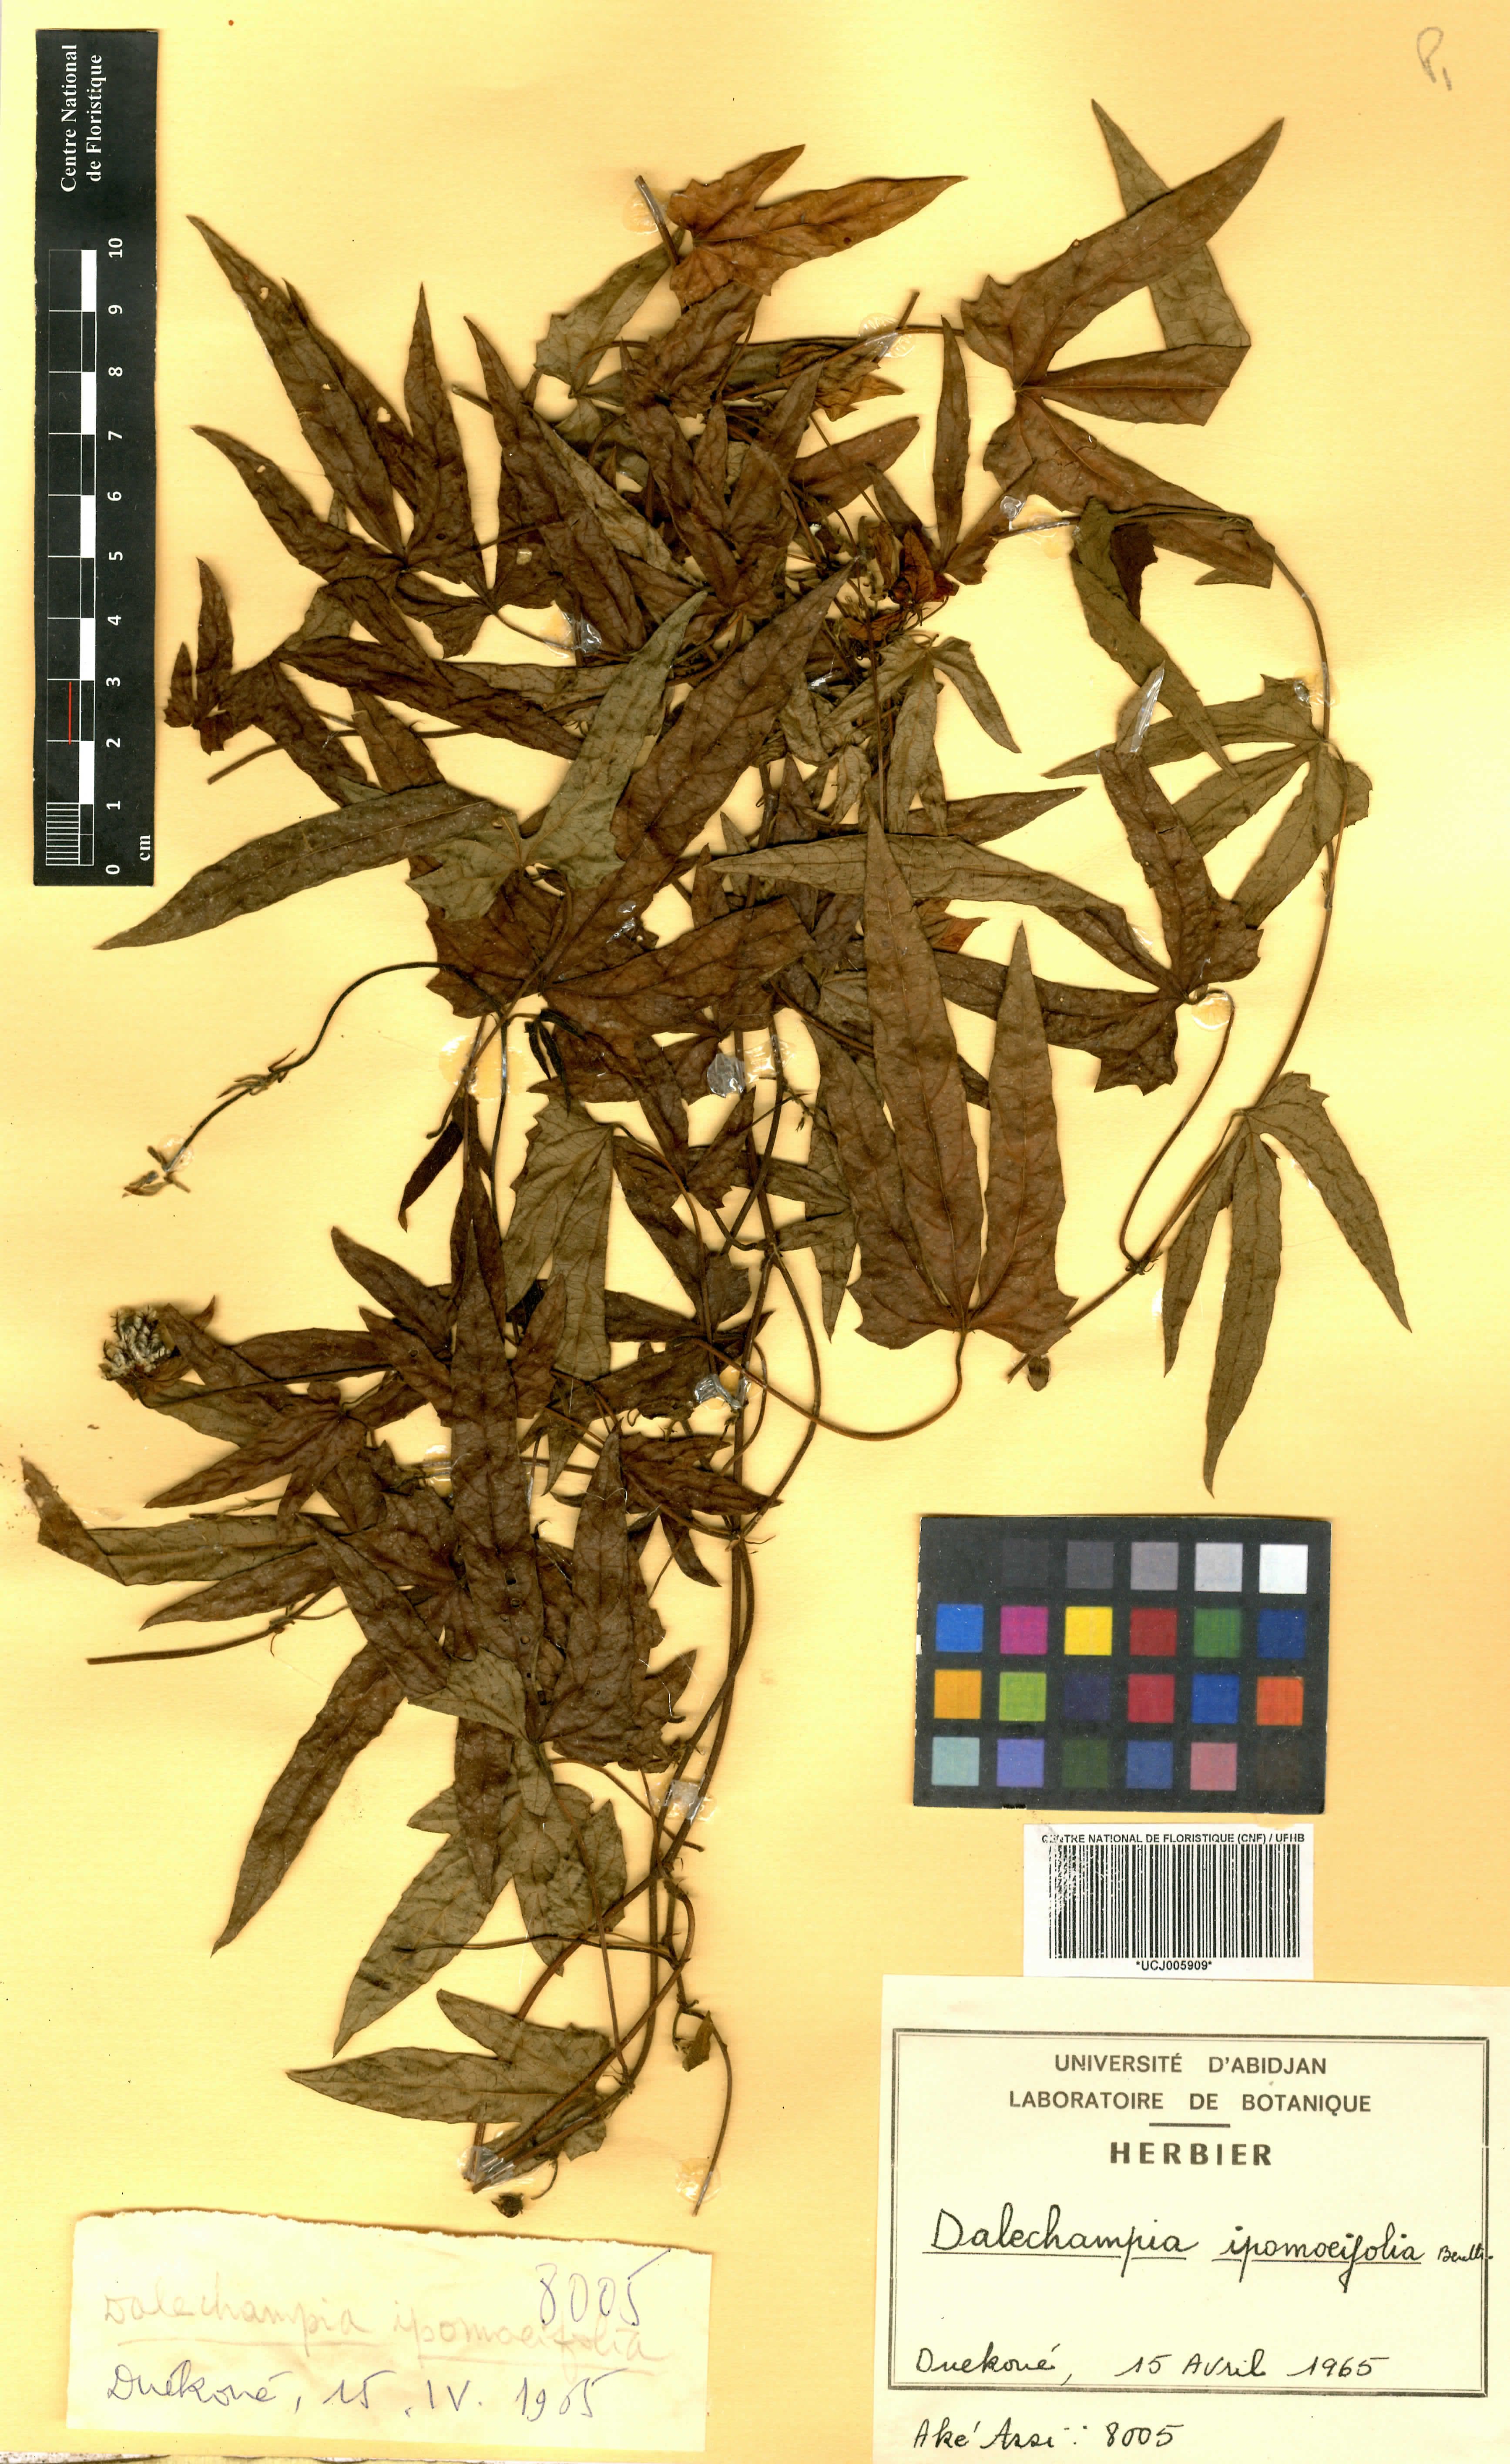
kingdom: Plantae
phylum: Tracheophyta
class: Magnoliopsida
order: Malpighiales
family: Euphorbiaceae
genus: Dalechampia
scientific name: Dalechampia ipomoeifolia
